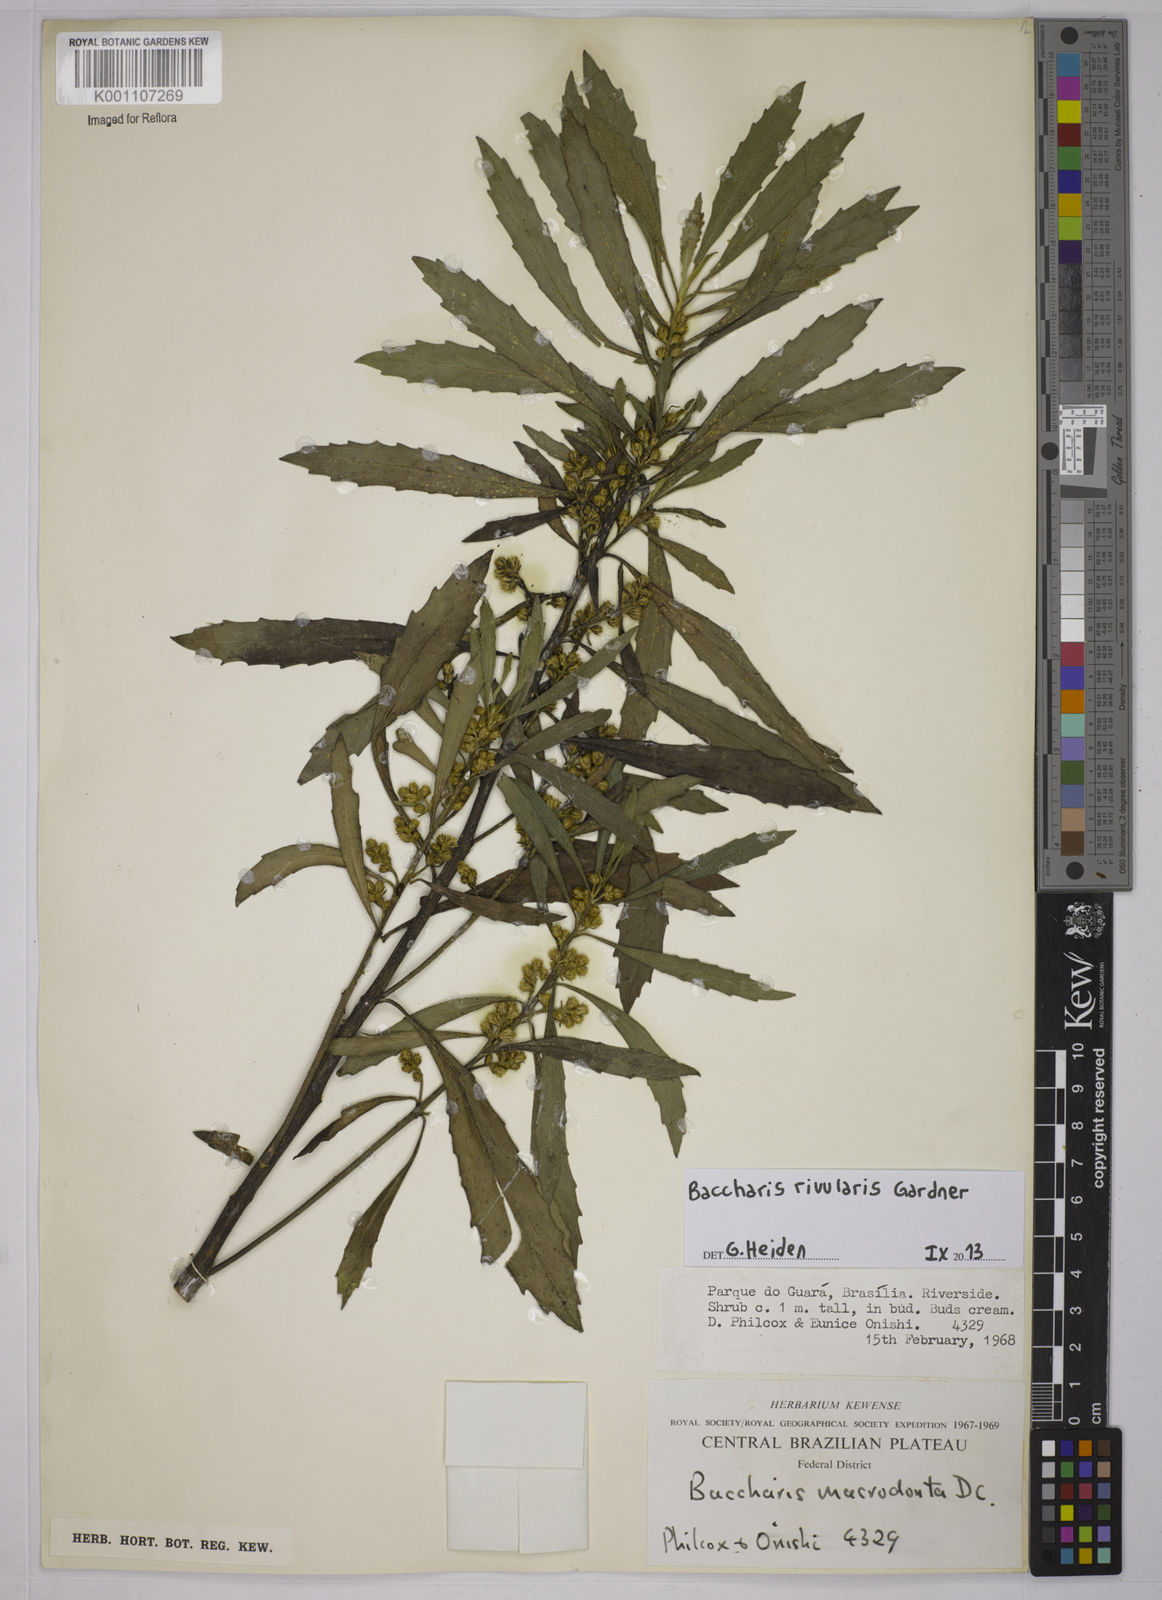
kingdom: Plantae
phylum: Tracheophyta
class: Magnoliopsida
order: Asterales
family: Asteraceae
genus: Baccharis
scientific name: Baccharis rivularis
